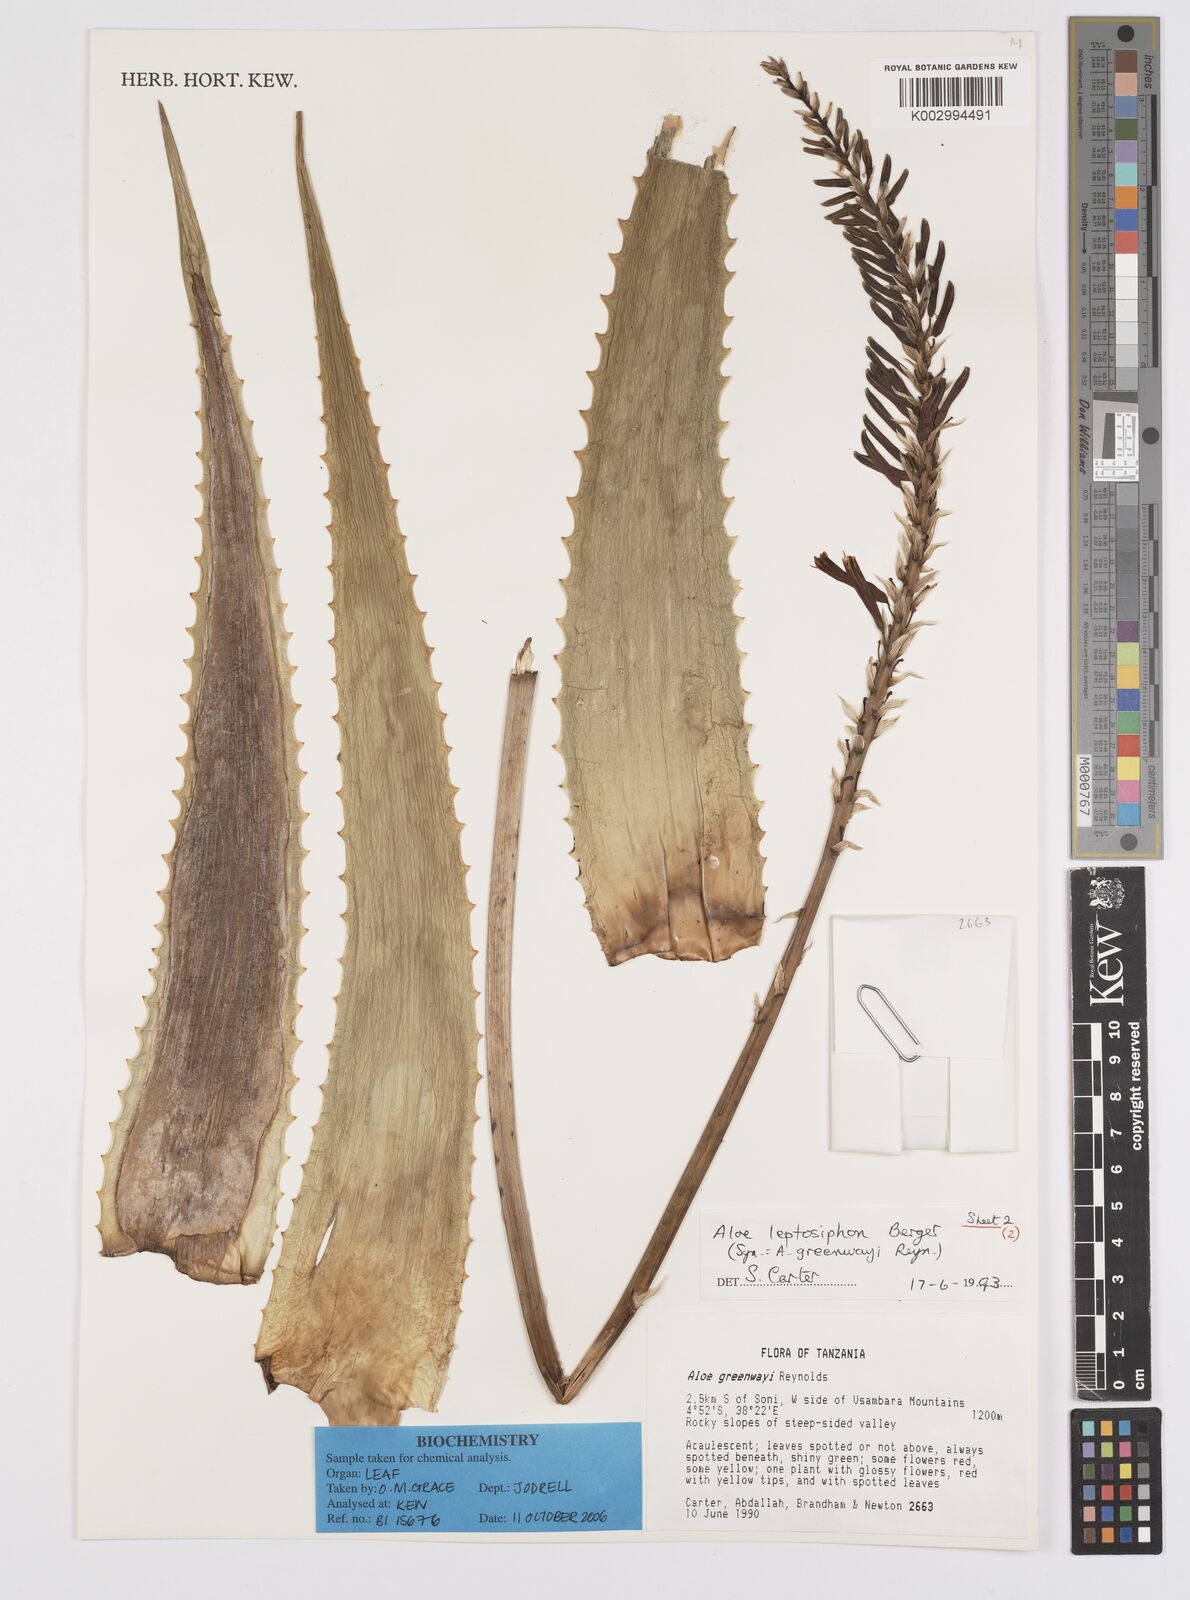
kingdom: Plantae
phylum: Tracheophyta
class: Liliopsida
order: Asparagales
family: Asphodelaceae
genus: Aloe
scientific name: Aloe leptosiphon
